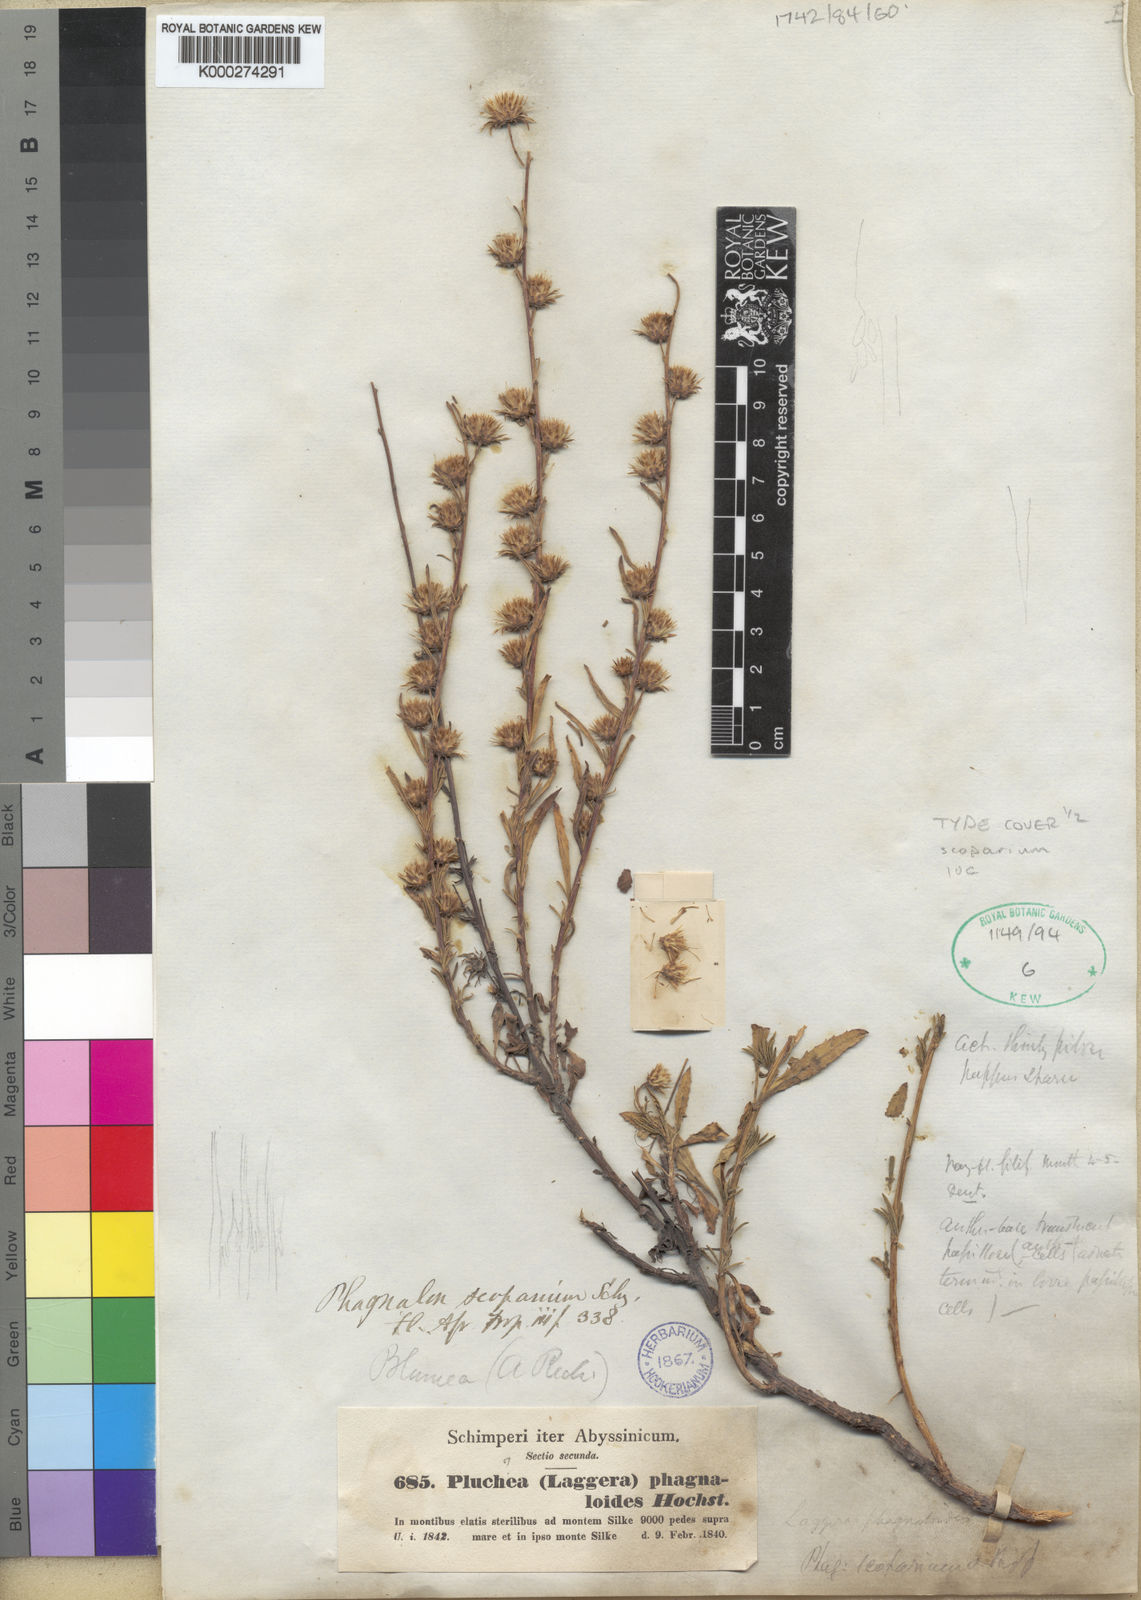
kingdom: Plantae
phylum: Tracheophyta
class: Magnoliopsida
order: Asterales
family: Asteraceae
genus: Phagnalon
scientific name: Phagnalon
